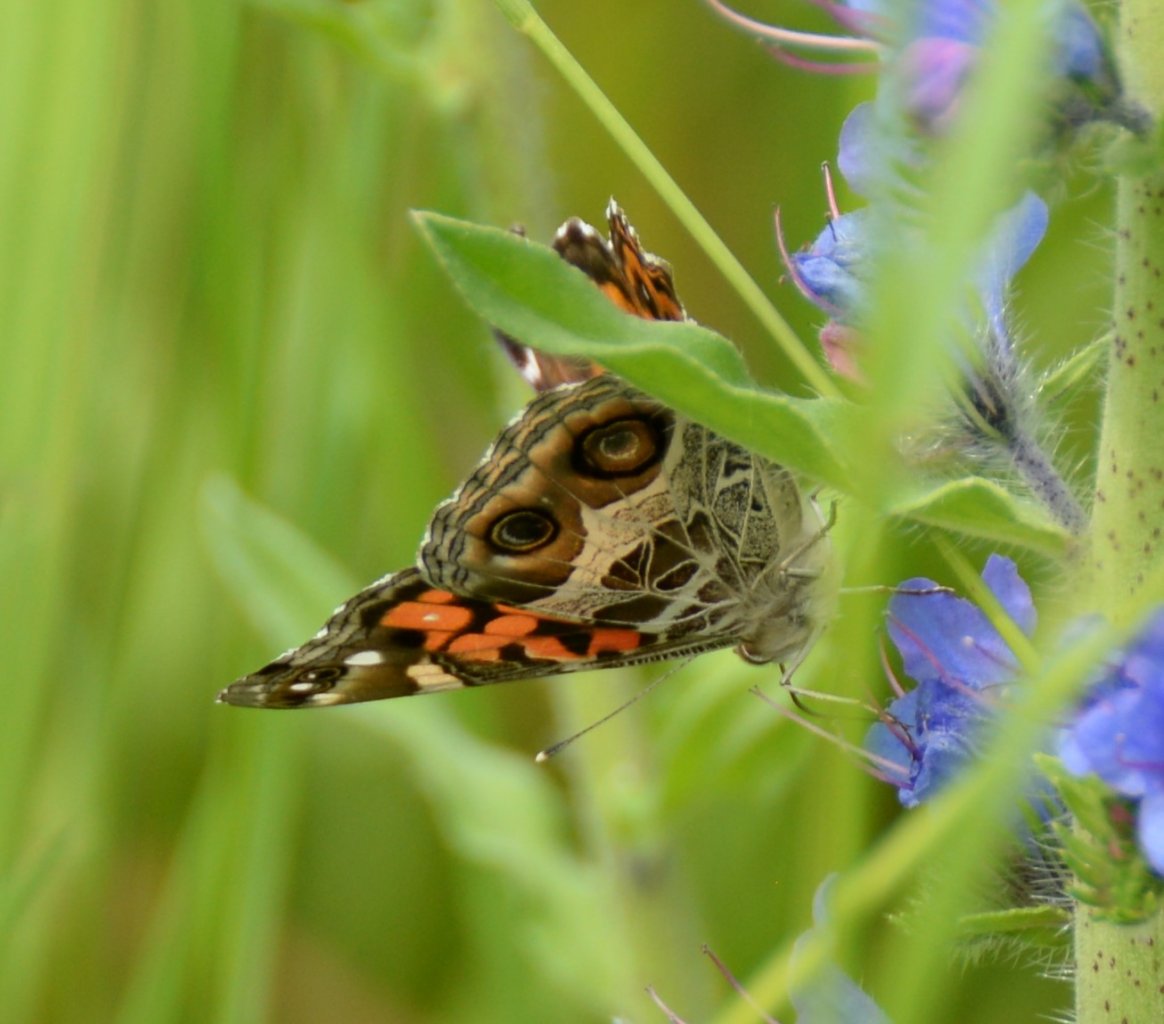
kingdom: Animalia
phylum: Arthropoda
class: Insecta
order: Lepidoptera
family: Nymphalidae
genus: Vanessa
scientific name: Vanessa virginiensis
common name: American Lady
